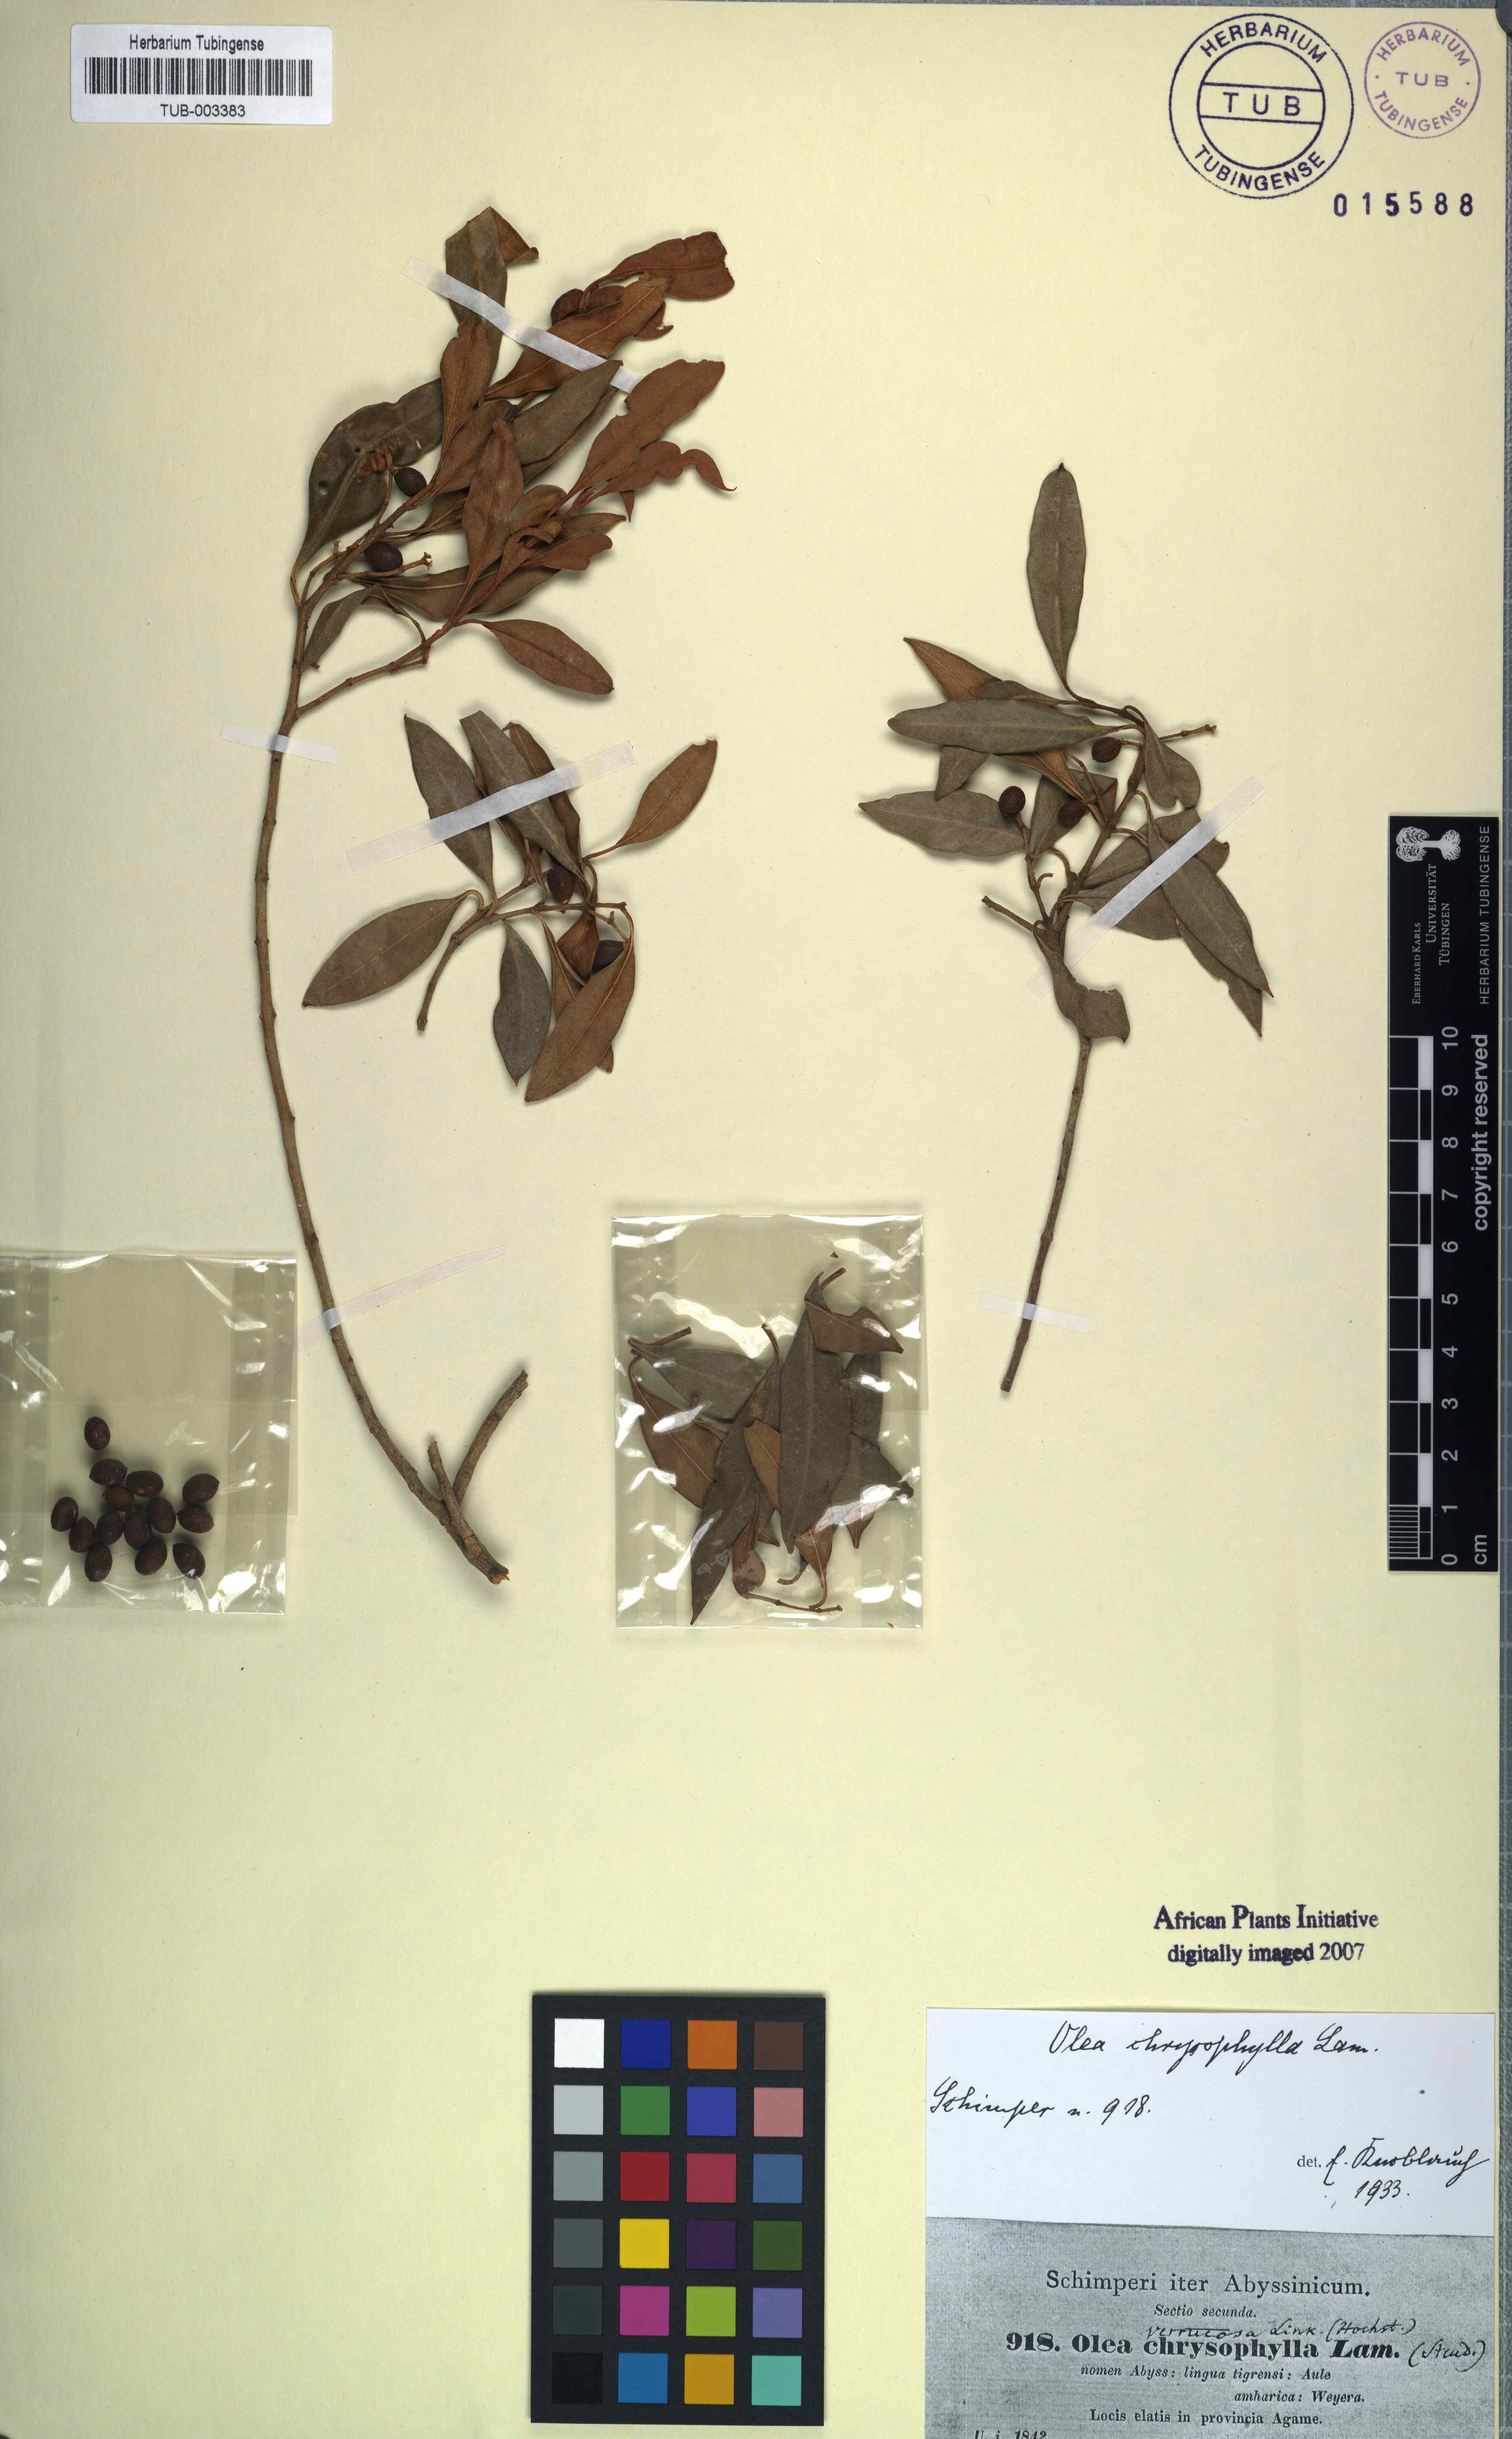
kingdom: Plantae
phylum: Tracheophyta
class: Magnoliopsida
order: Lamiales
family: Oleaceae
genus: Olea
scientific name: Olea europaea
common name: Olive
